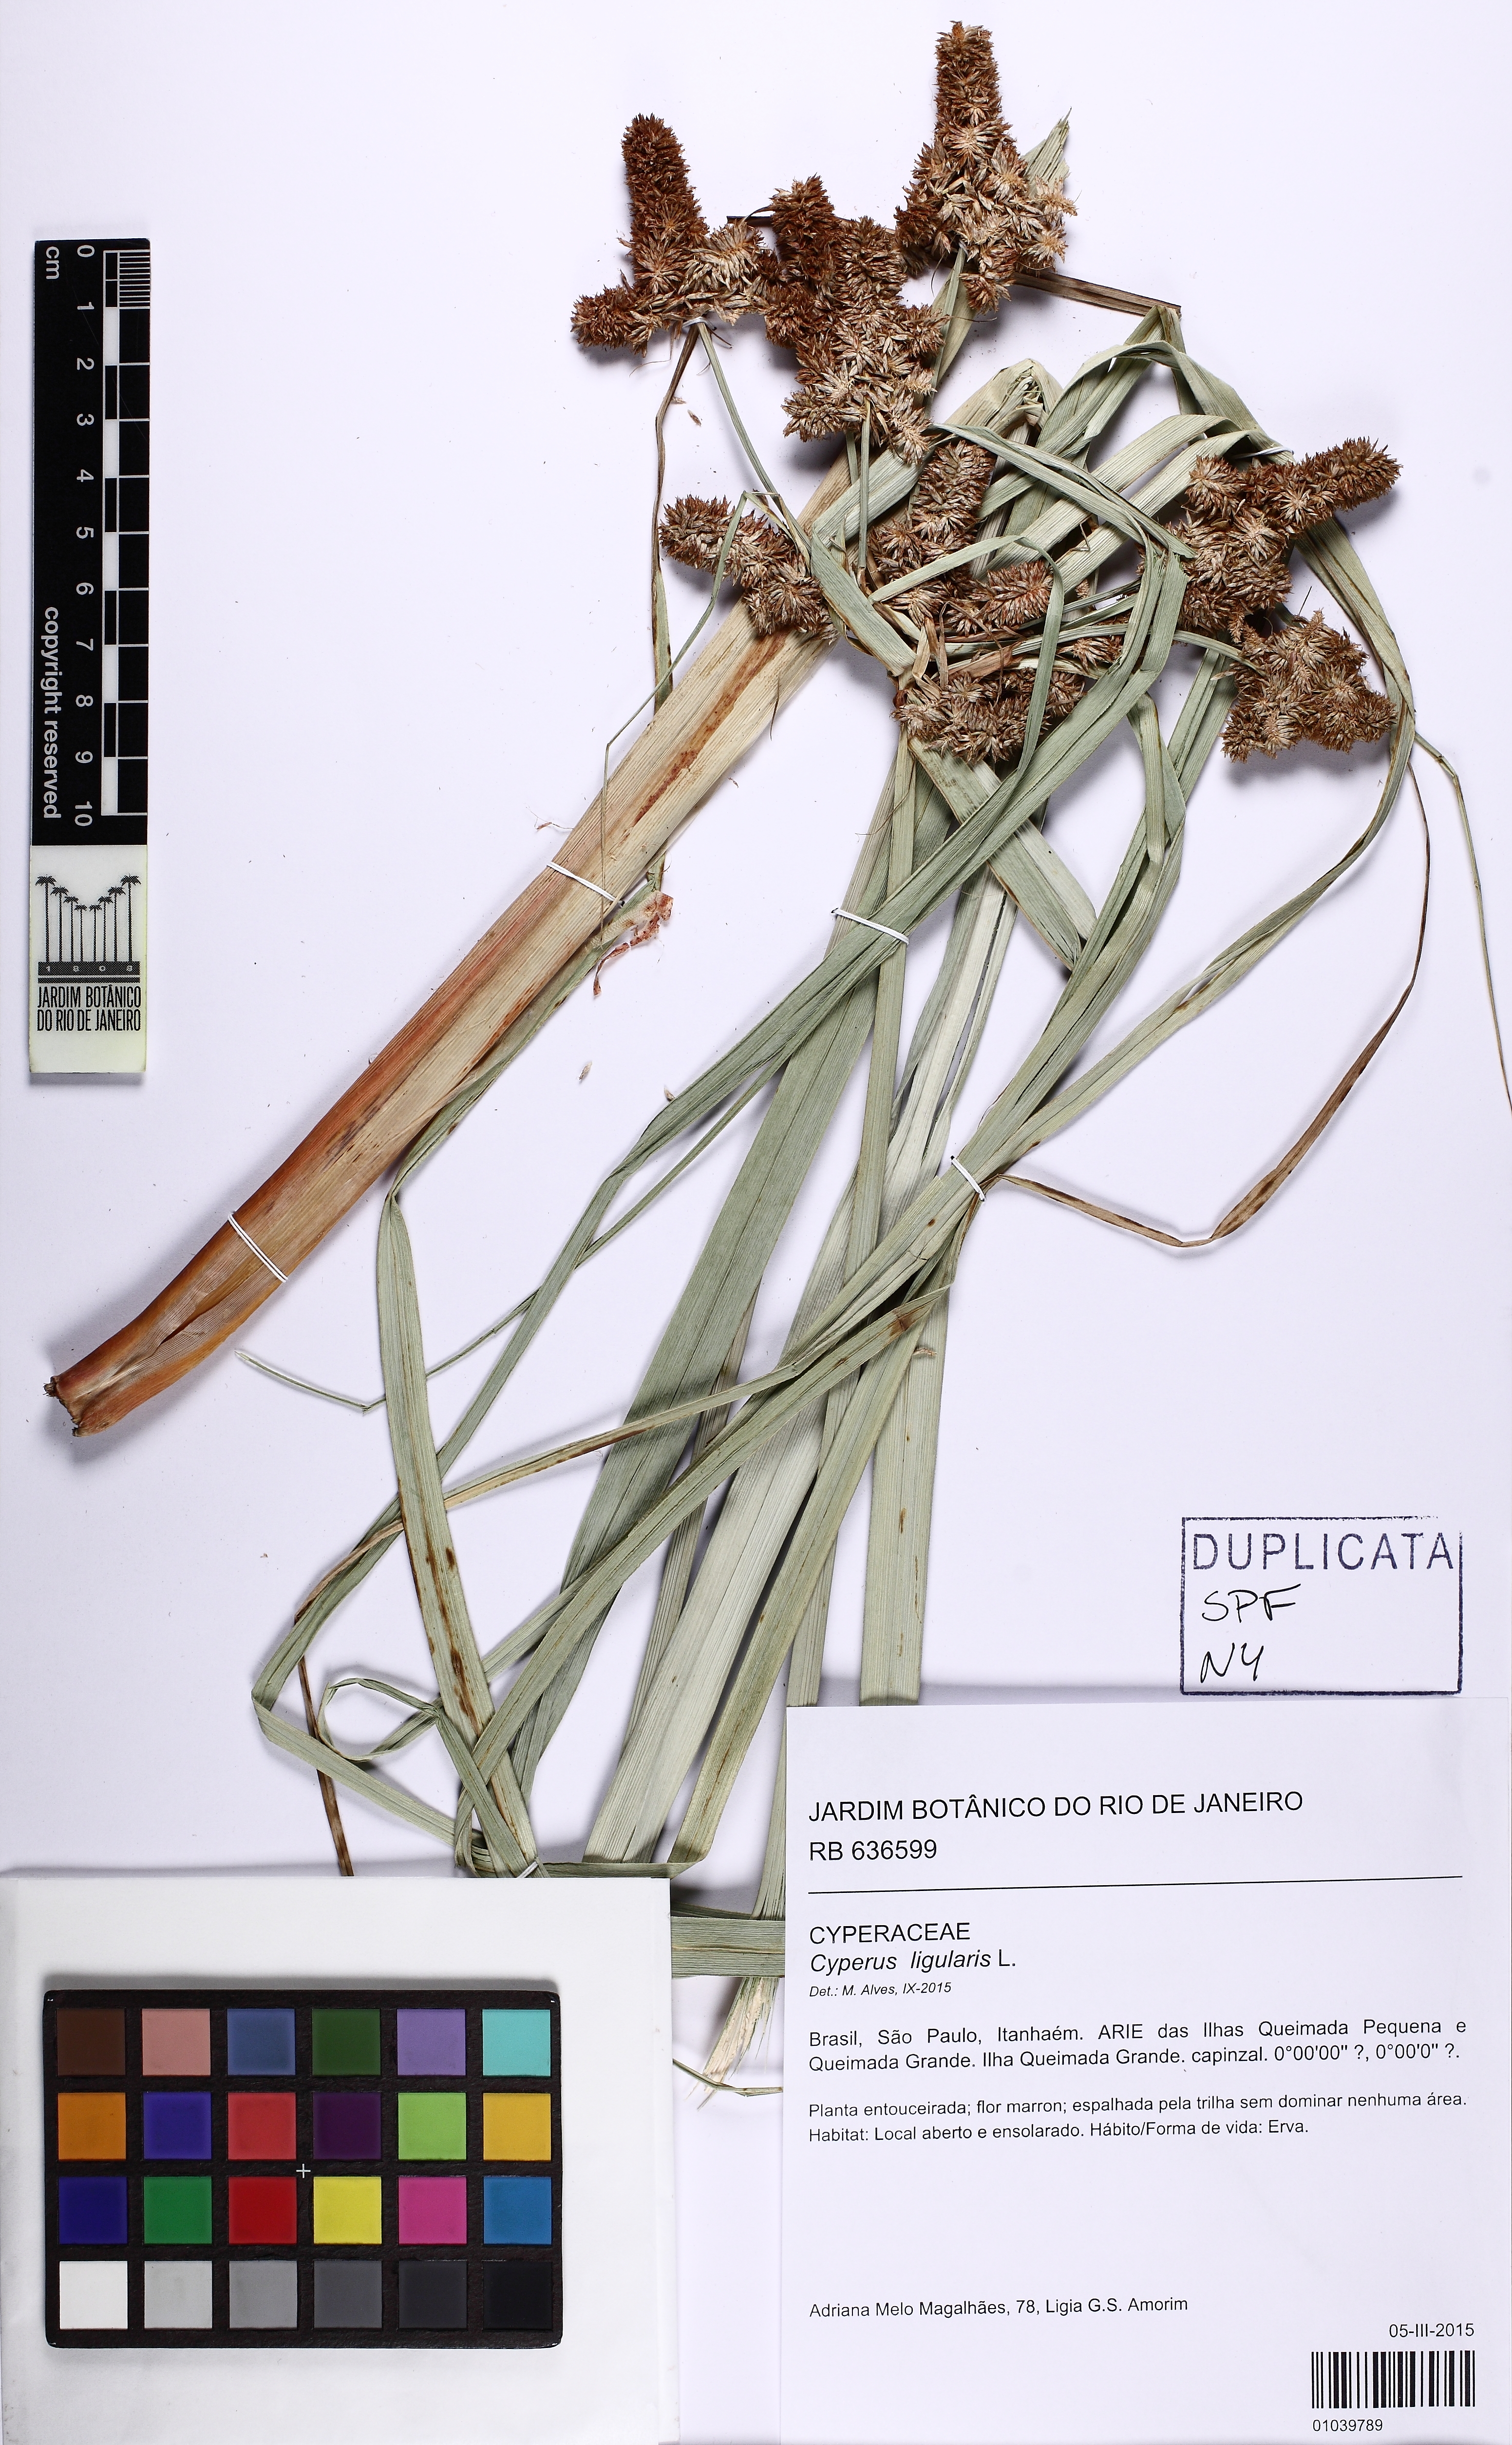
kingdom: Plantae
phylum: Tracheophyta
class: Liliopsida
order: Poales
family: Cyperaceae
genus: Cyperus
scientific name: Cyperus ligularis
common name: Swamp flat sedge
